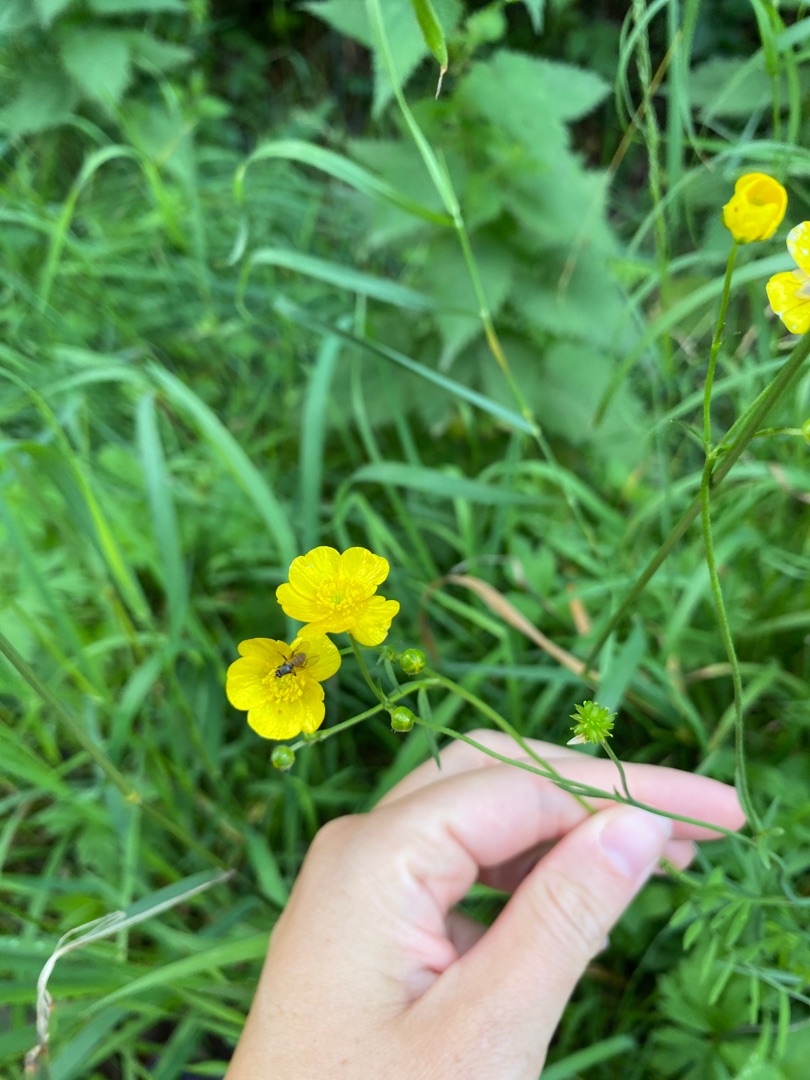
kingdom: Plantae
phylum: Tracheophyta
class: Magnoliopsida
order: Ranunculales
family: Ranunculaceae
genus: Ranunculus
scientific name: Ranunculus acris
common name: Bidende ranunkel
